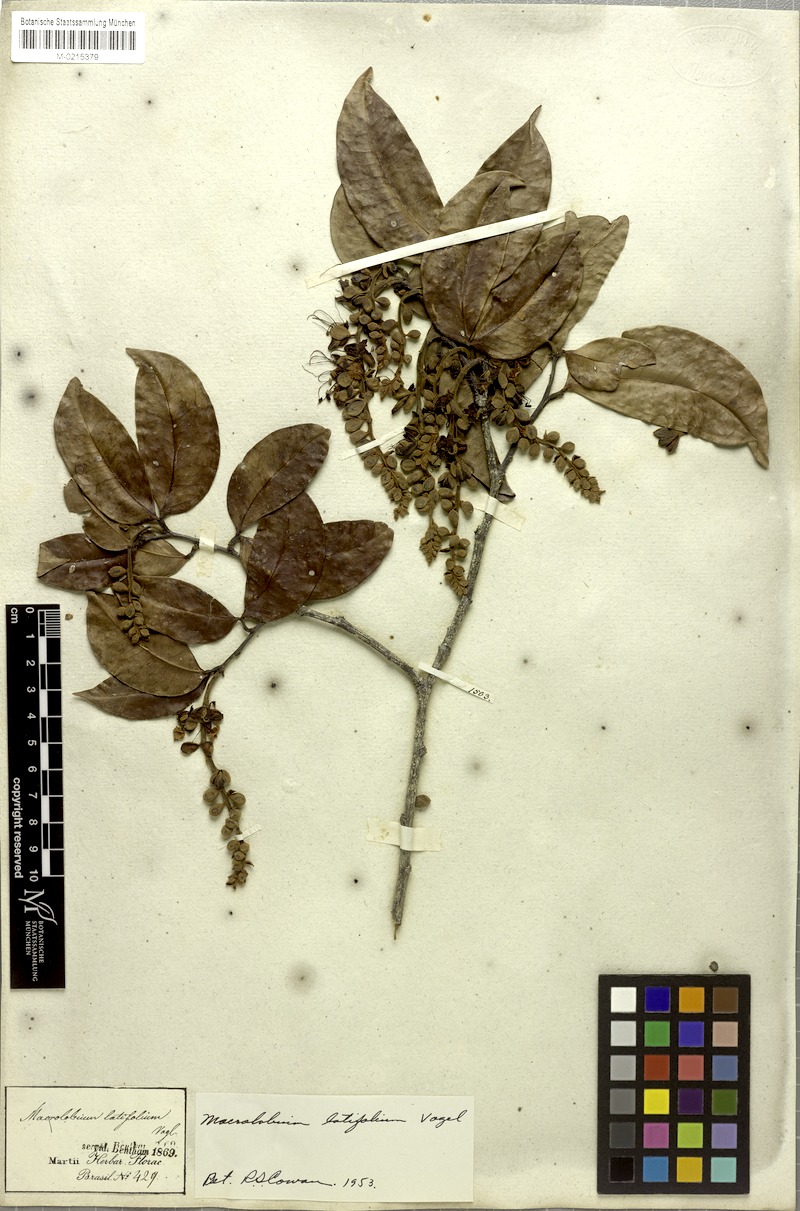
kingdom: Plantae
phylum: Tracheophyta
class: Magnoliopsida
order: Fabales
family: Fabaceae
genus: Macrolobium
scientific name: Macrolobium latifolium
